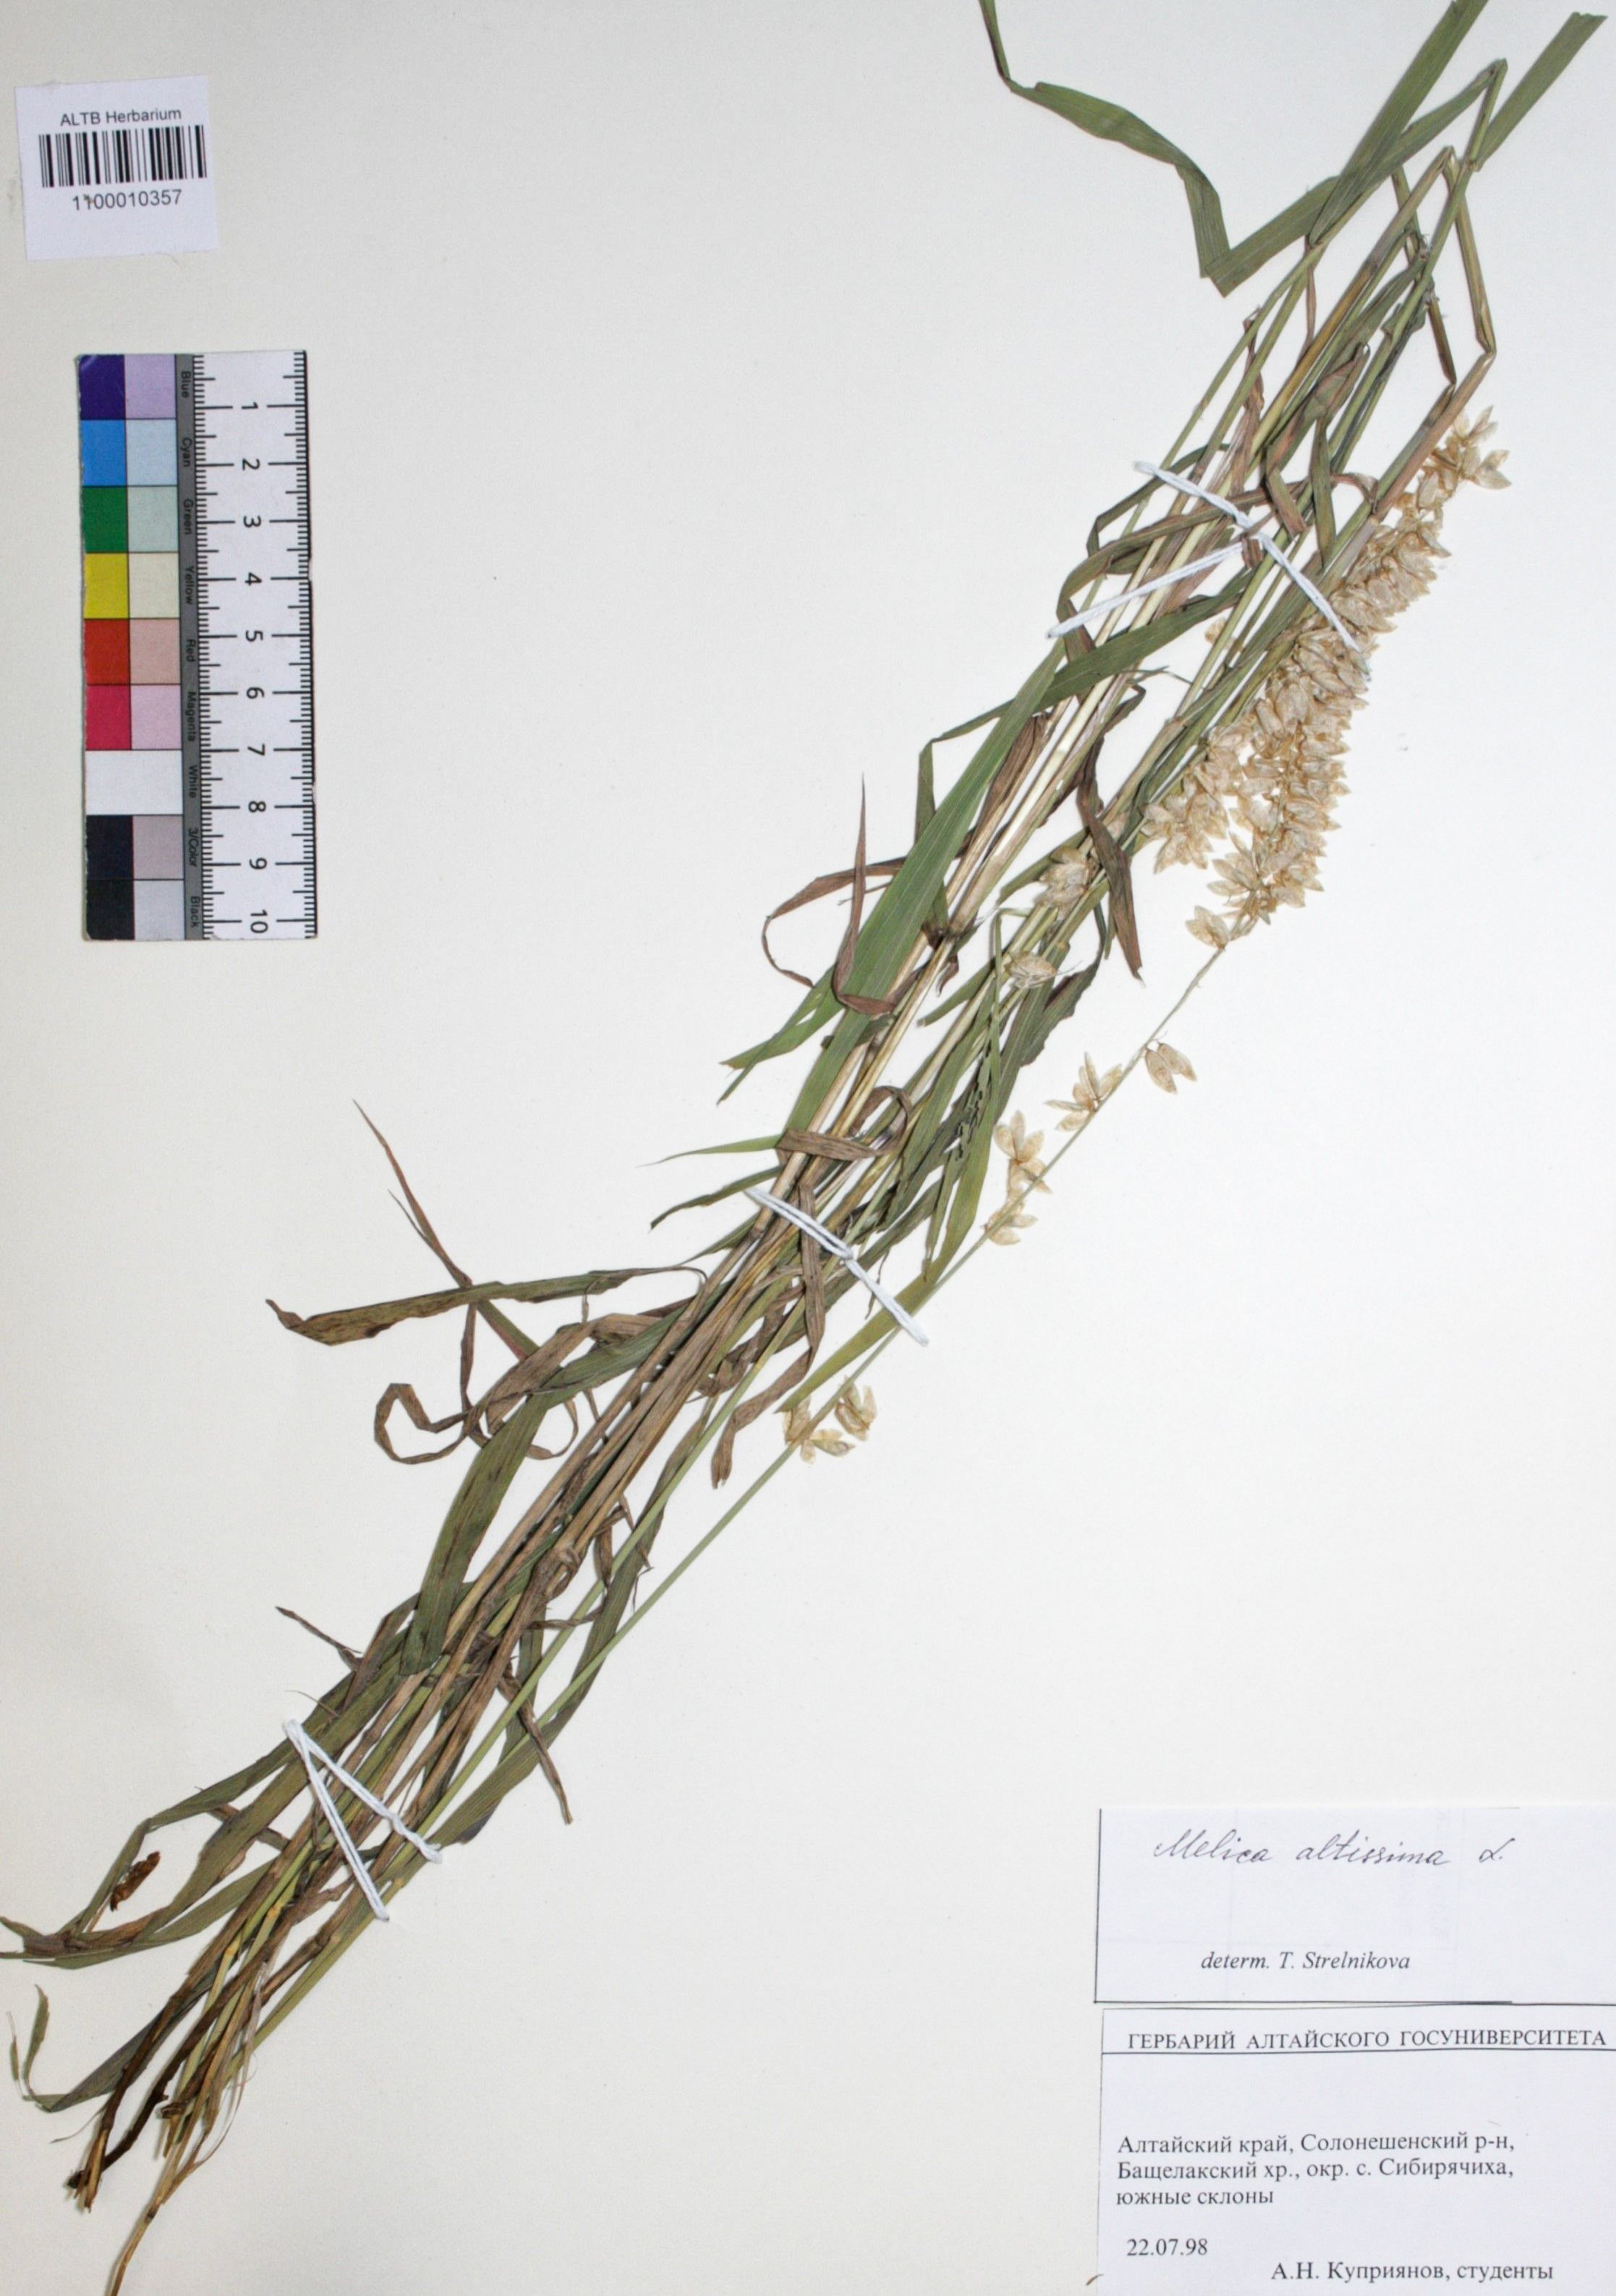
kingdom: Plantae
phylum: Tracheophyta
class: Liliopsida
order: Poales
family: Poaceae
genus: Melica
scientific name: Melica altissima
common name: Siberian melicgrass
